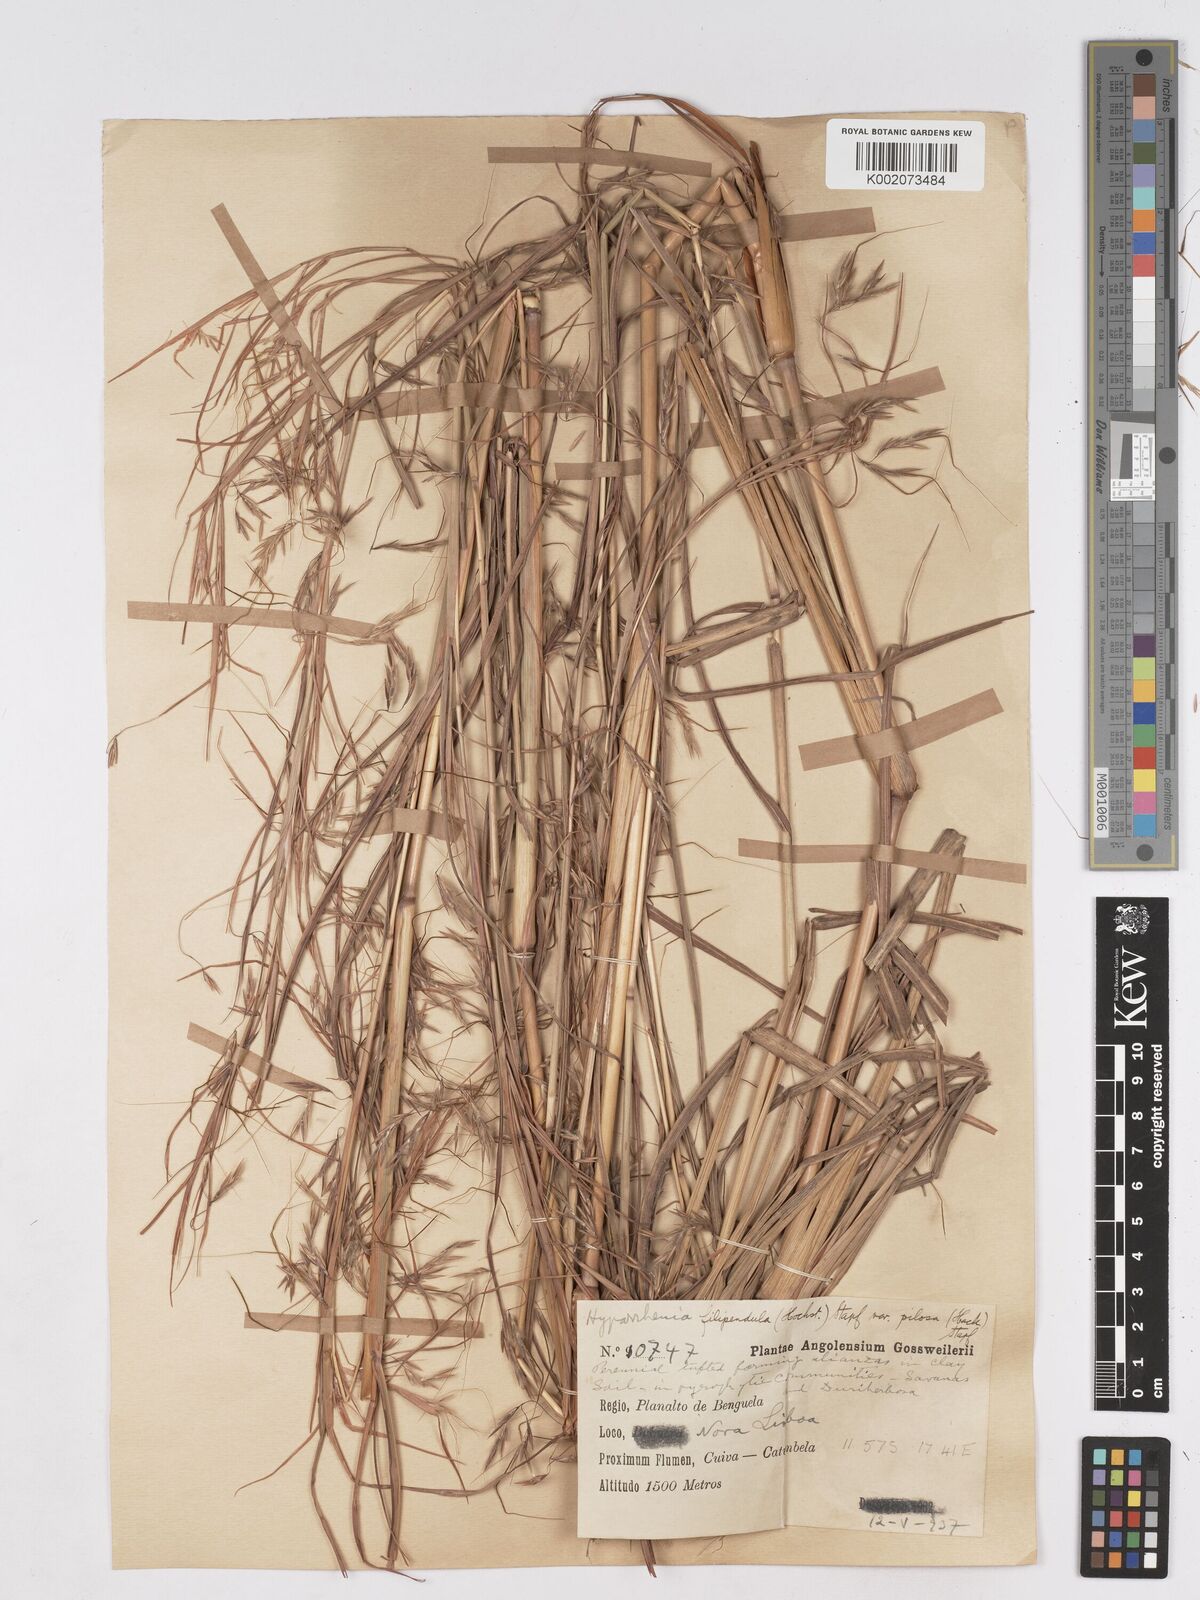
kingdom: Plantae
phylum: Tracheophyta
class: Liliopsida
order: Poales
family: Poaceae
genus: Hyparrhenia
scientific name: Hyparrhenia filipendula
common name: Tambookie grass
